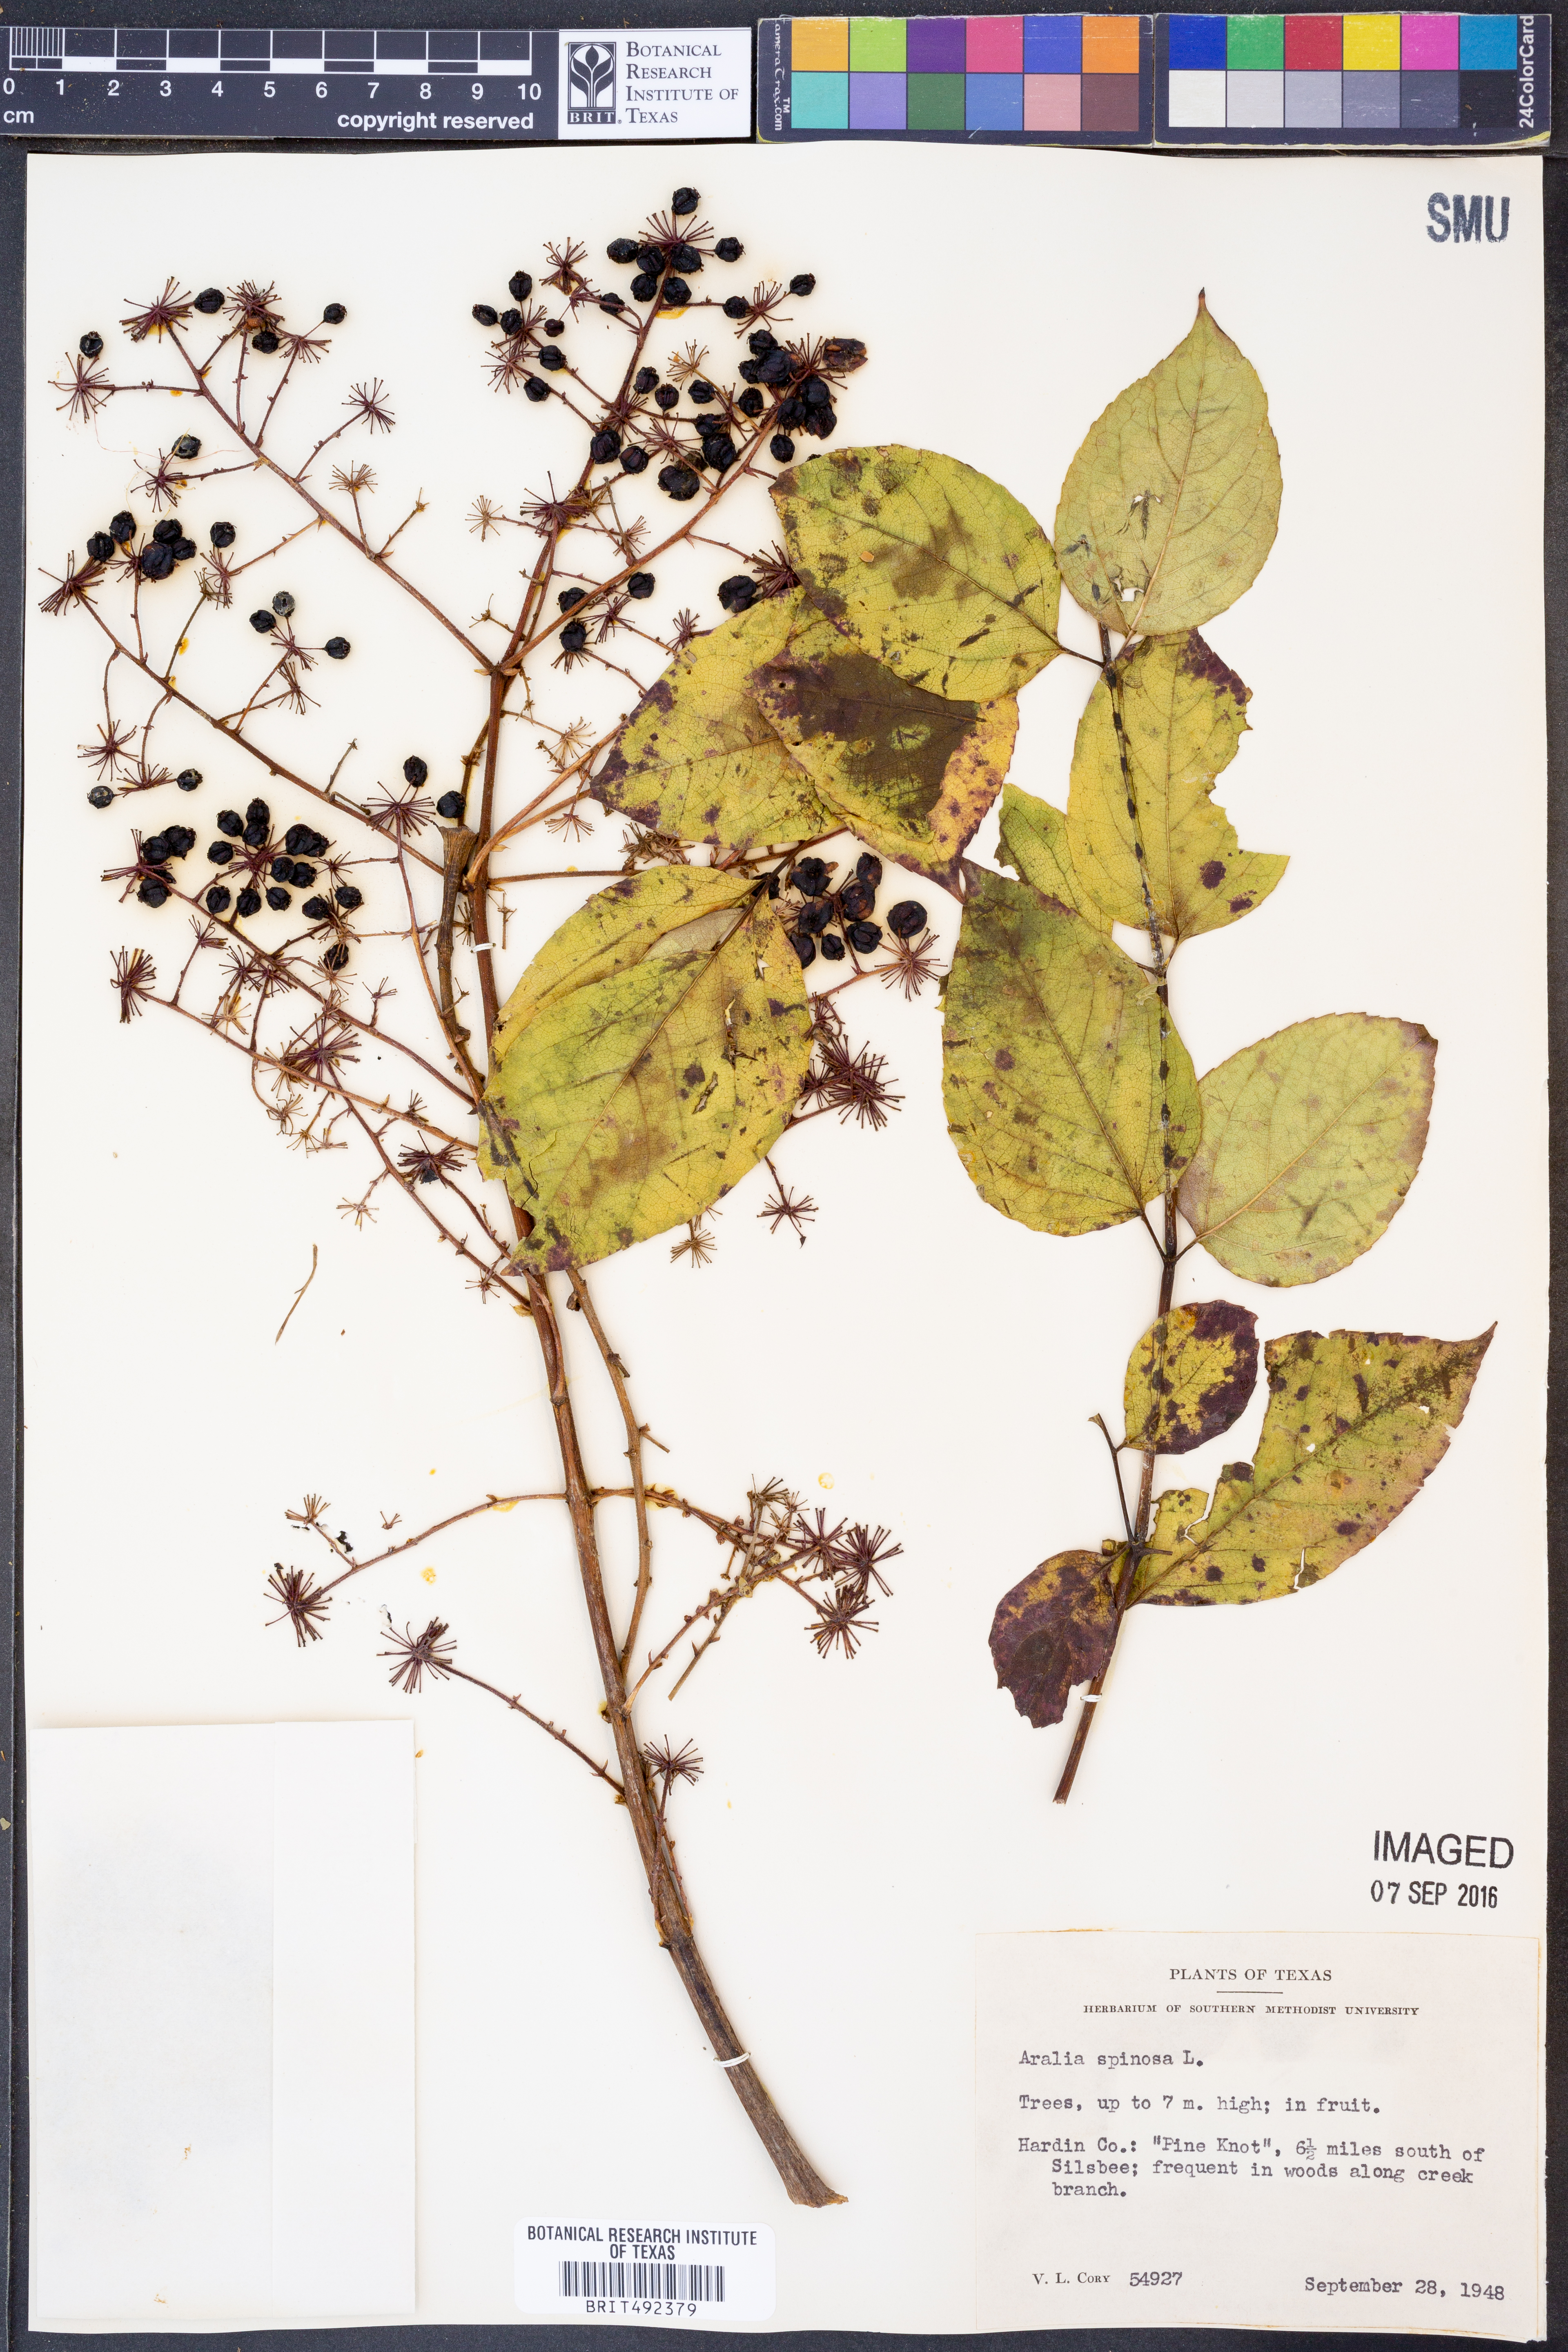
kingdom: Plantae
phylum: Tracheophyta
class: Magnoliopsida
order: Apiales
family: Araliaceae
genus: Aralia
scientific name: Aralia spinosa
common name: Hercules'-club
